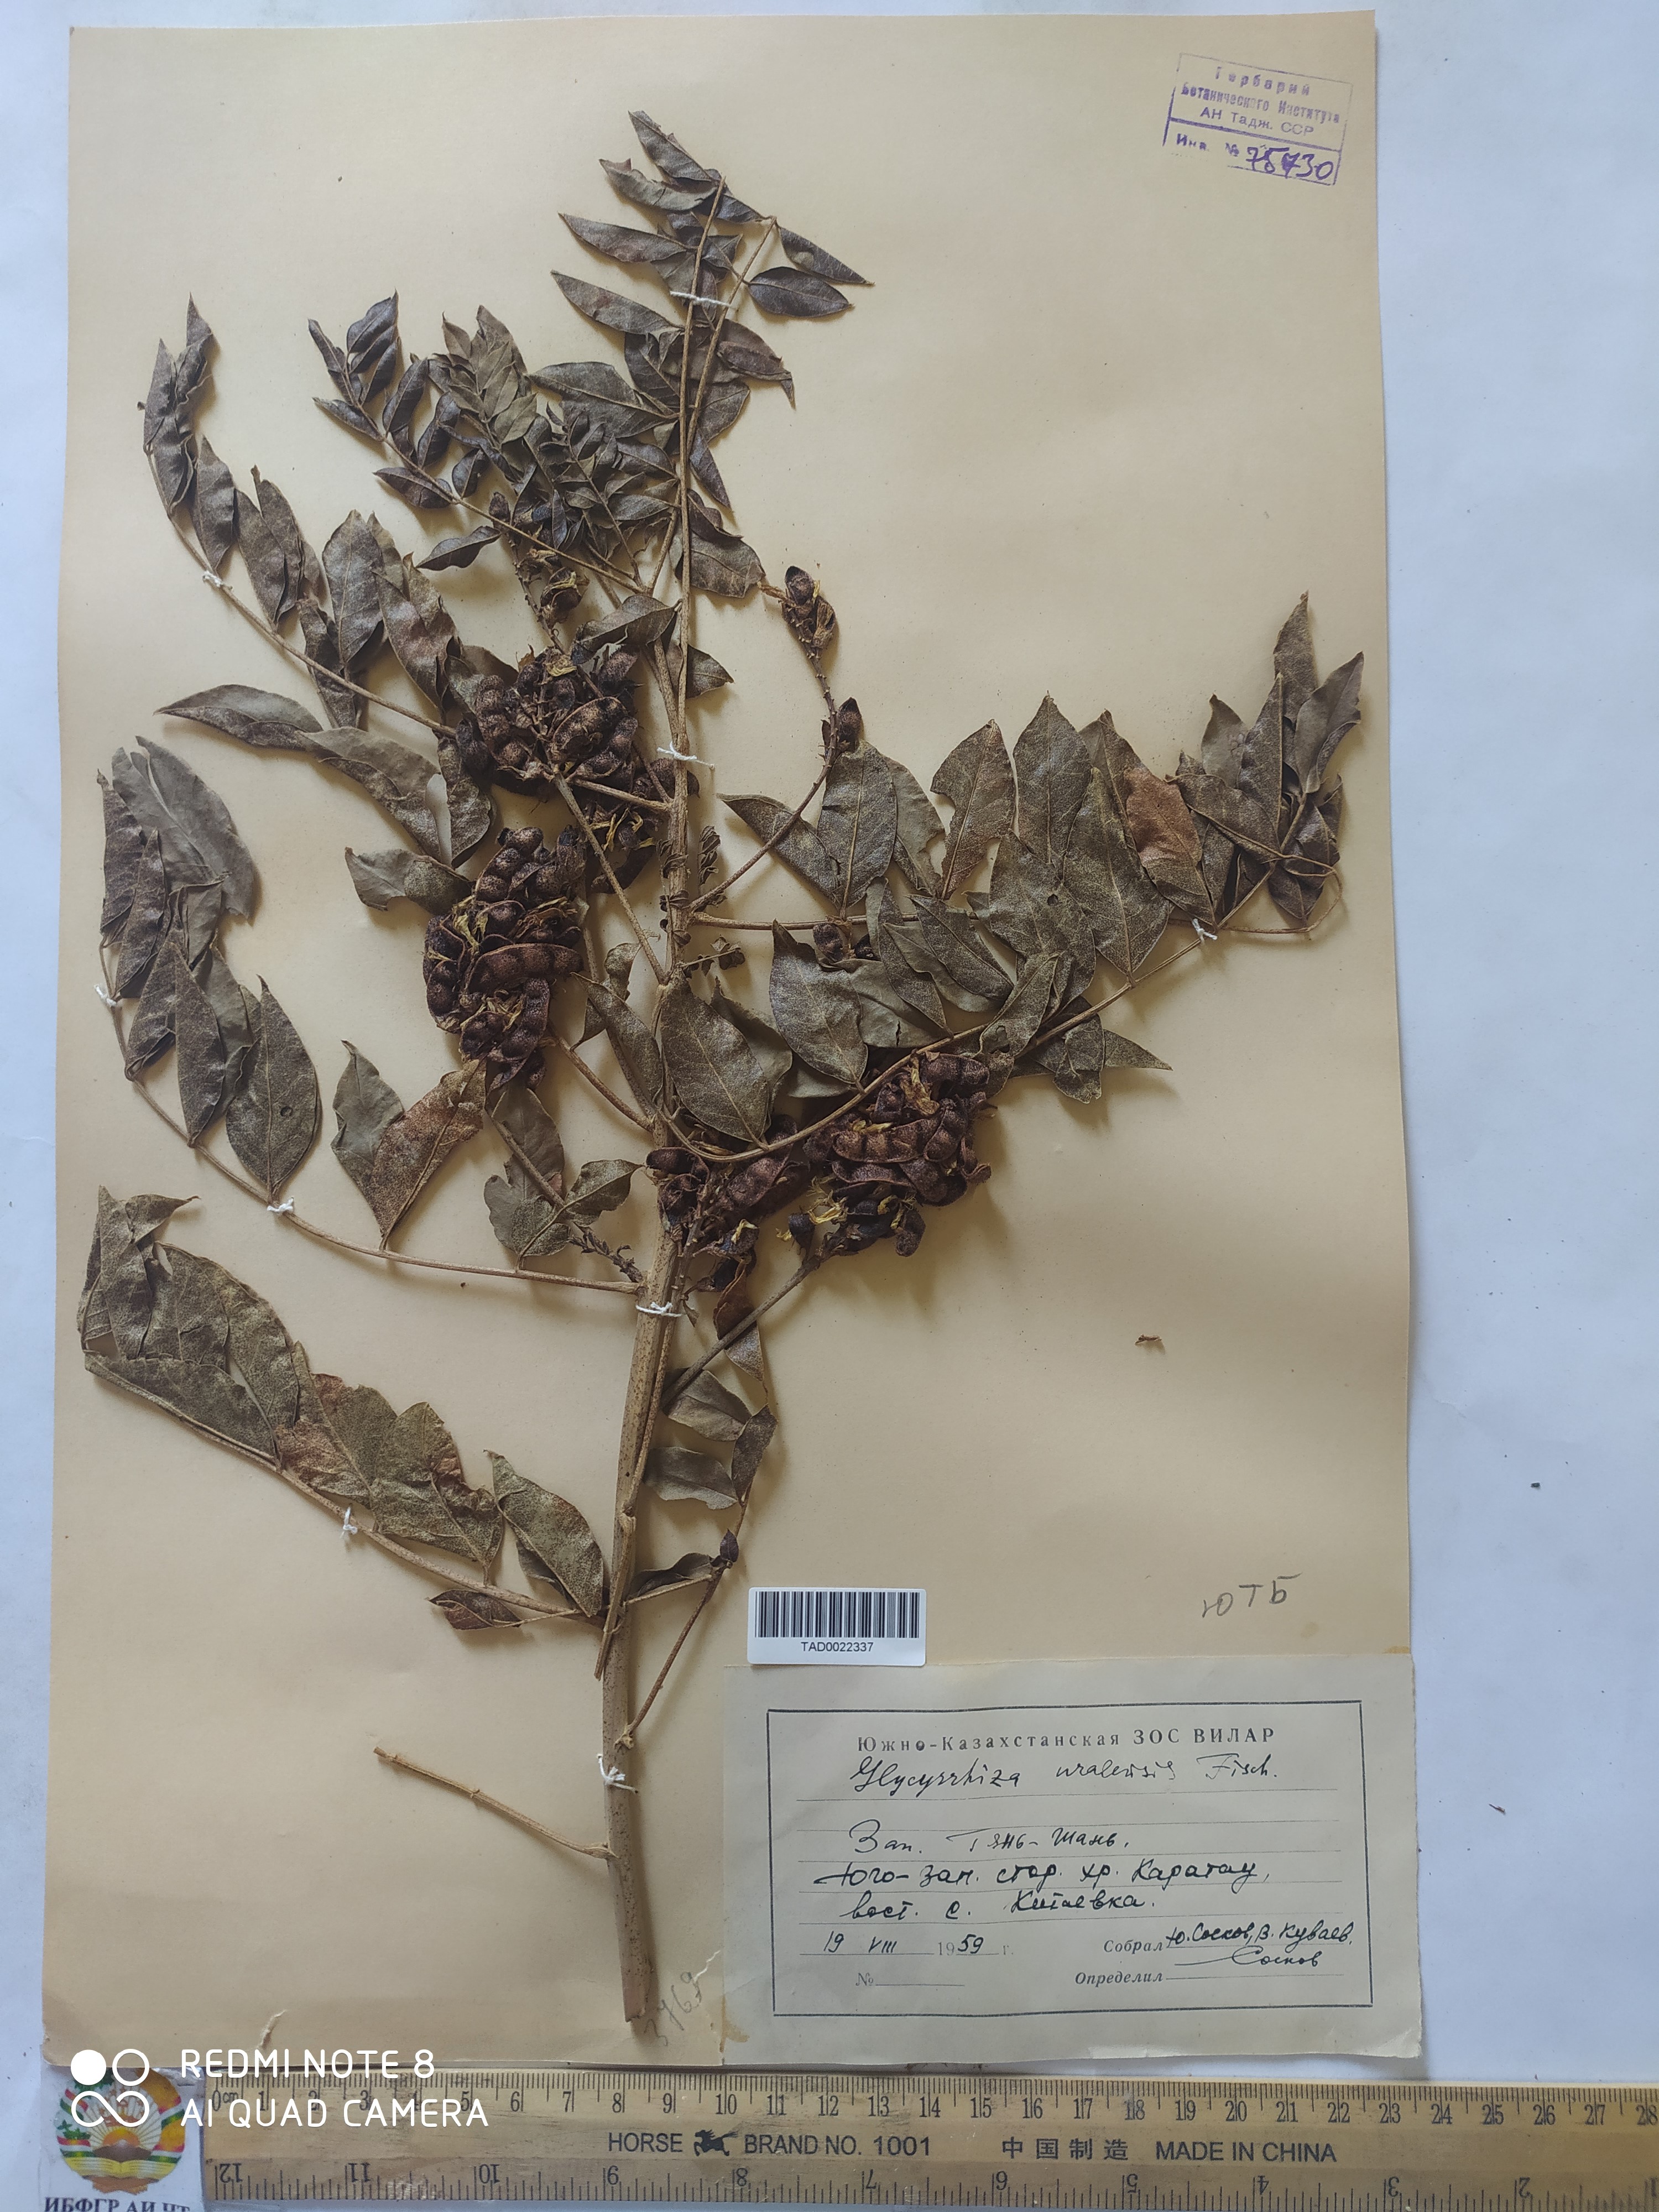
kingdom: Plantae
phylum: Tracheophyta
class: Magnoliopsida
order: Fabales
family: Fabaceae
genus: Glycyrrhiza
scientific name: Glycyrrhiza uralensis
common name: Chinese licorice
